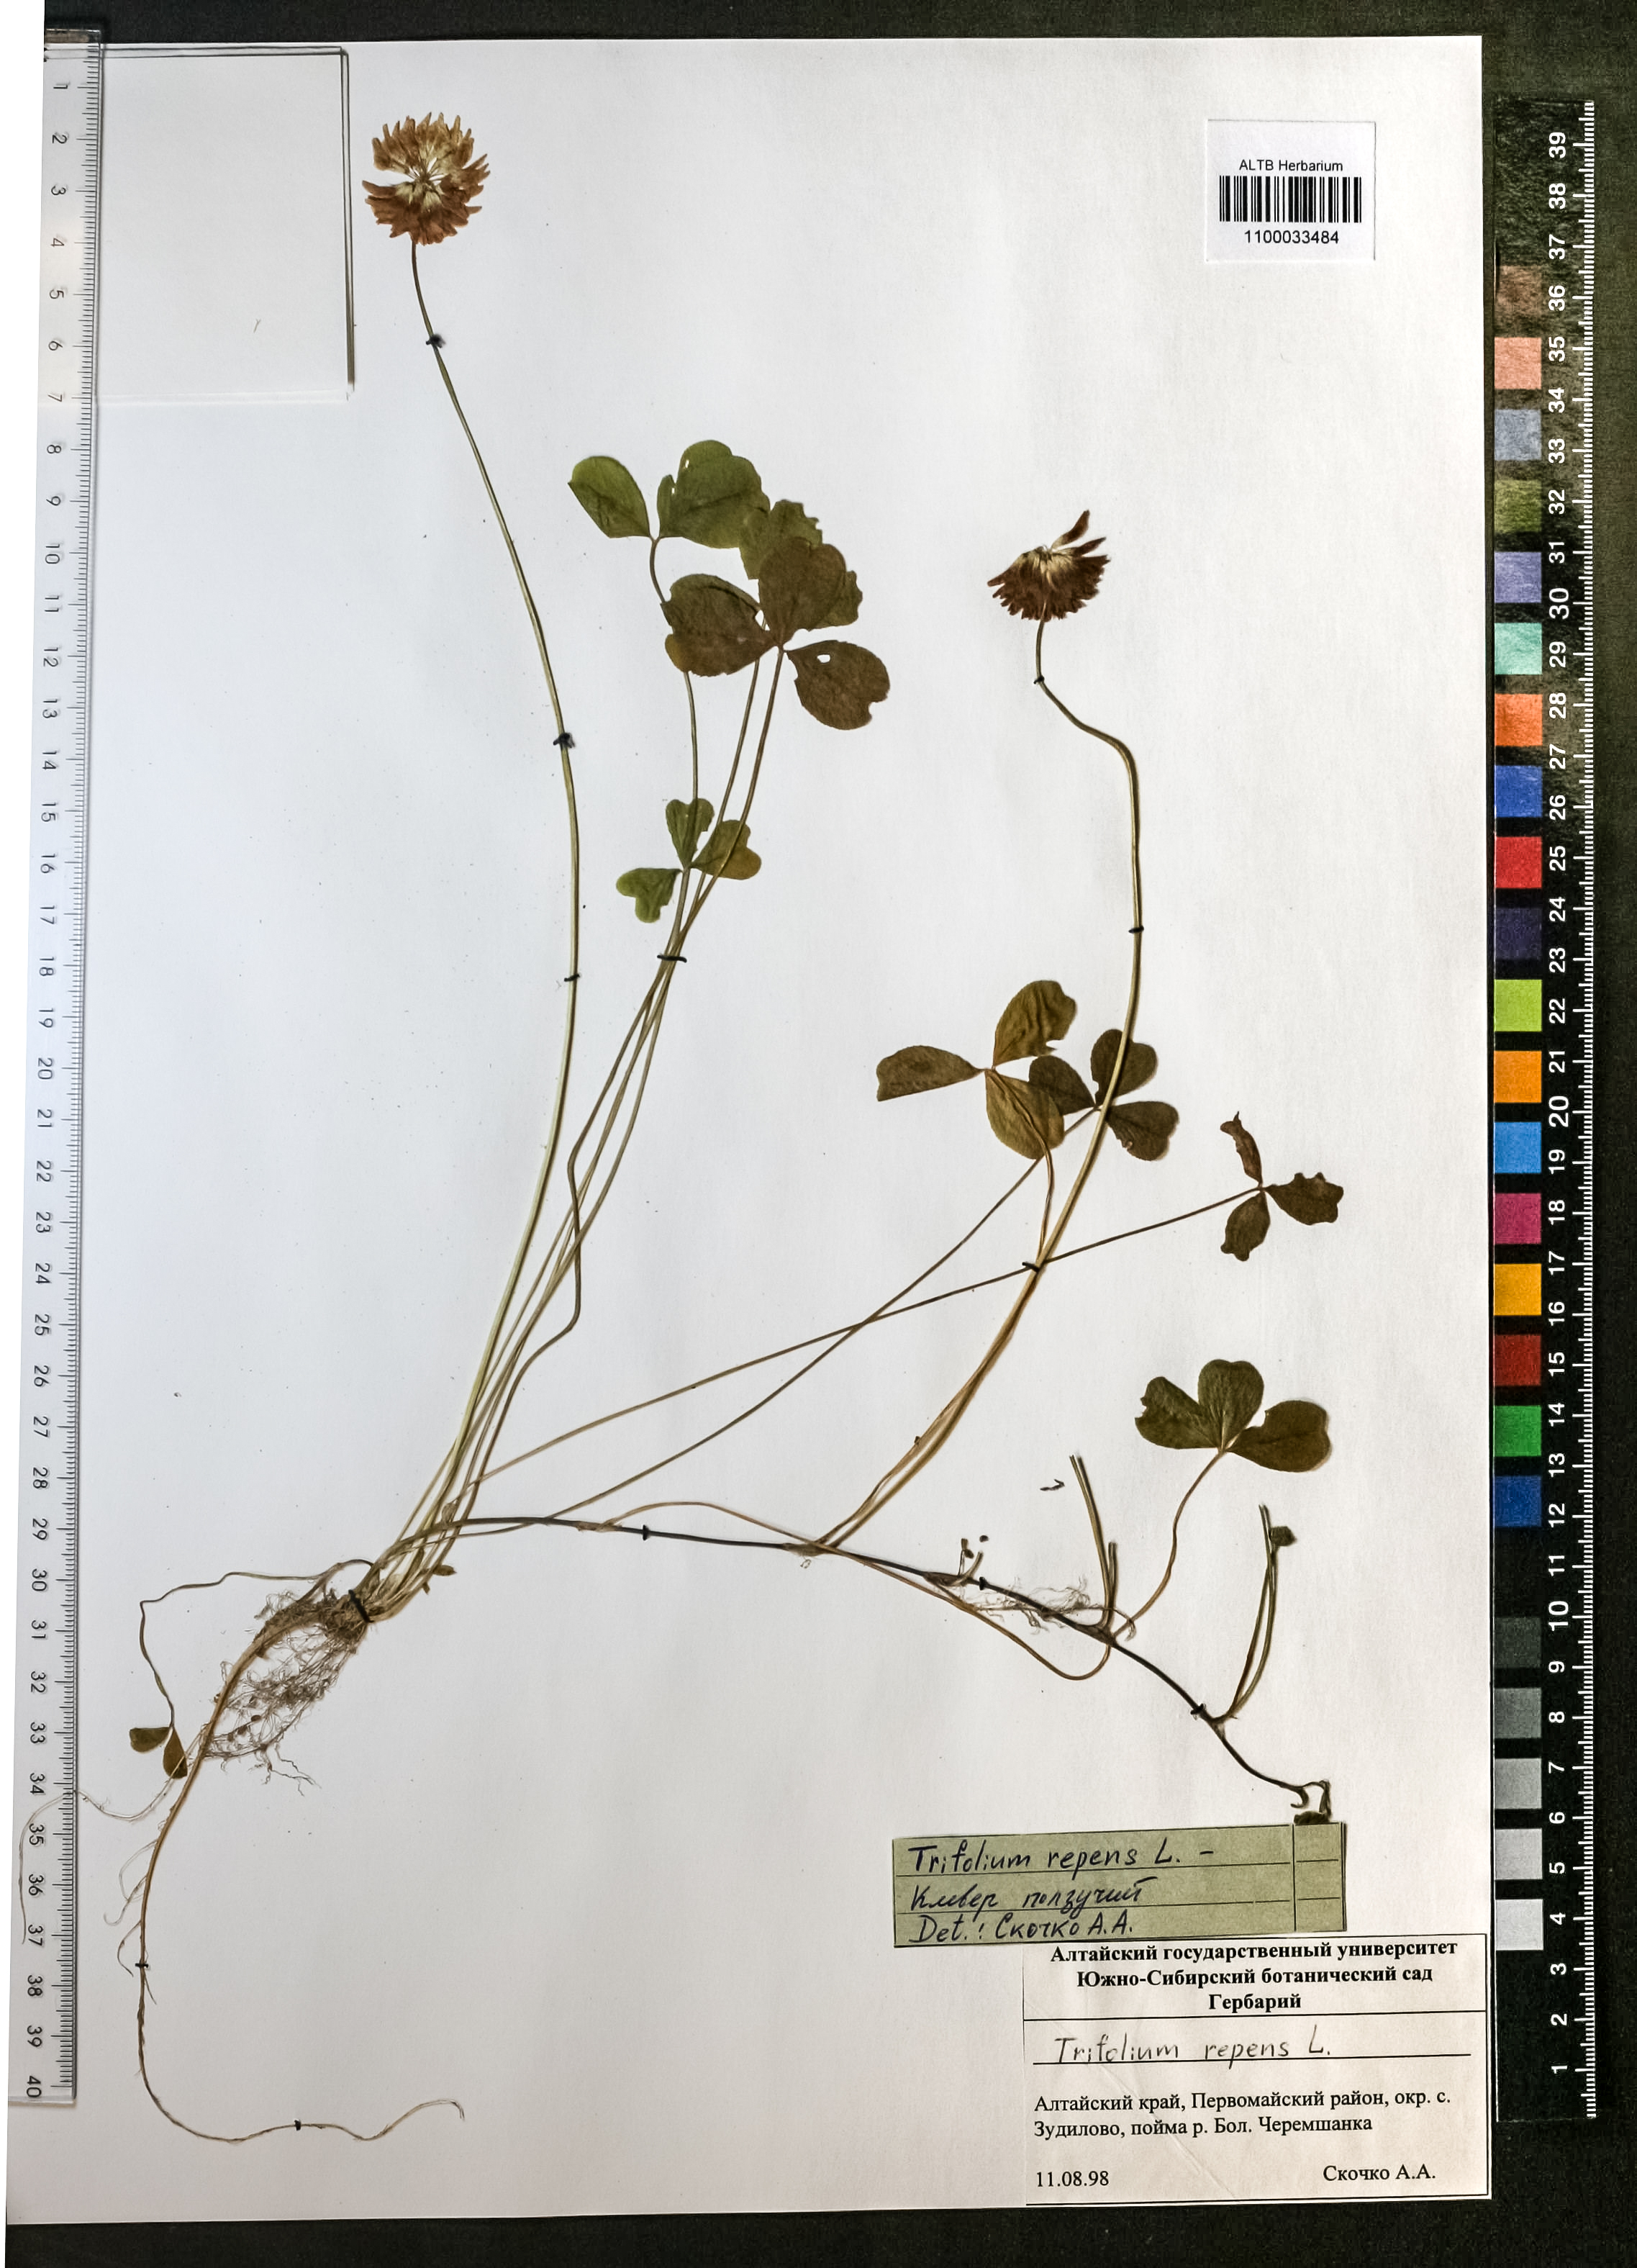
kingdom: Plantae
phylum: Tracheophyta
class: Magnoliopsida
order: Fabales
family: Fabaceae
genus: Trifolium
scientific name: Trifolium repens
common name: White clover
